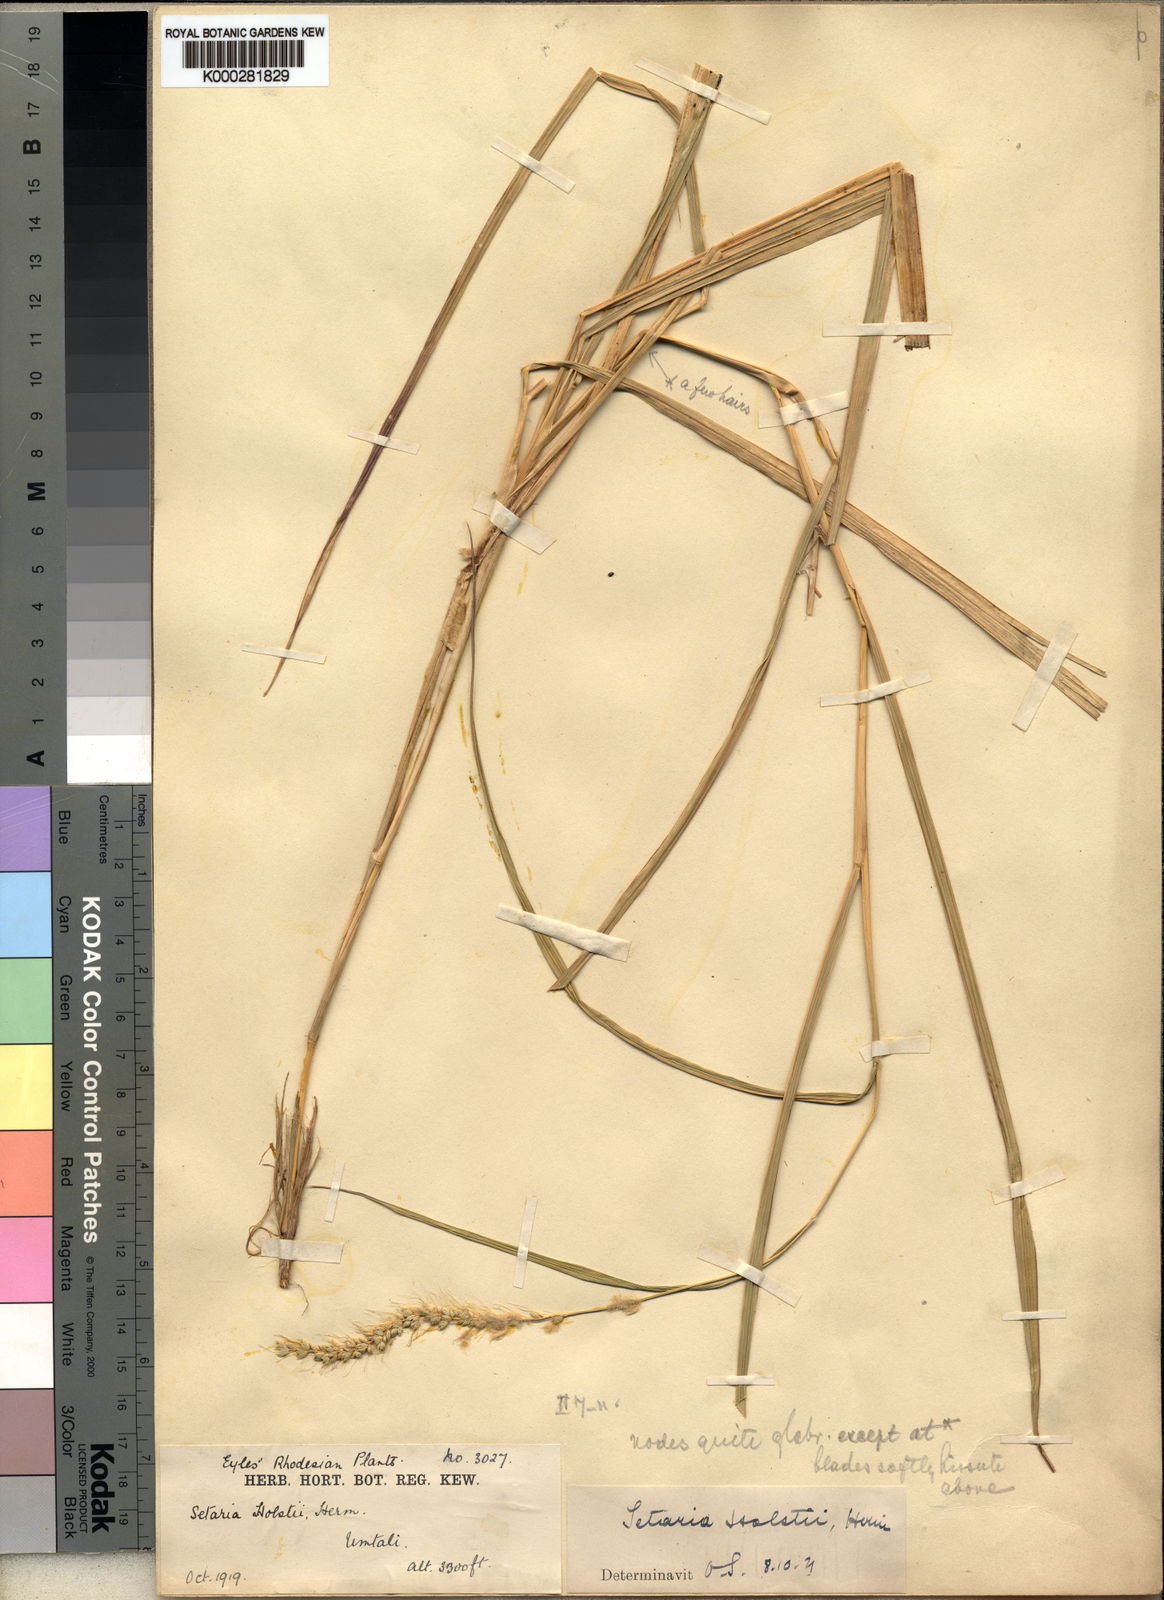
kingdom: Plantae
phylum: Tracheophyta
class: Liliopsida
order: Poales
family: Poaceae
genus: Setaria
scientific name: Setaria incrassata
